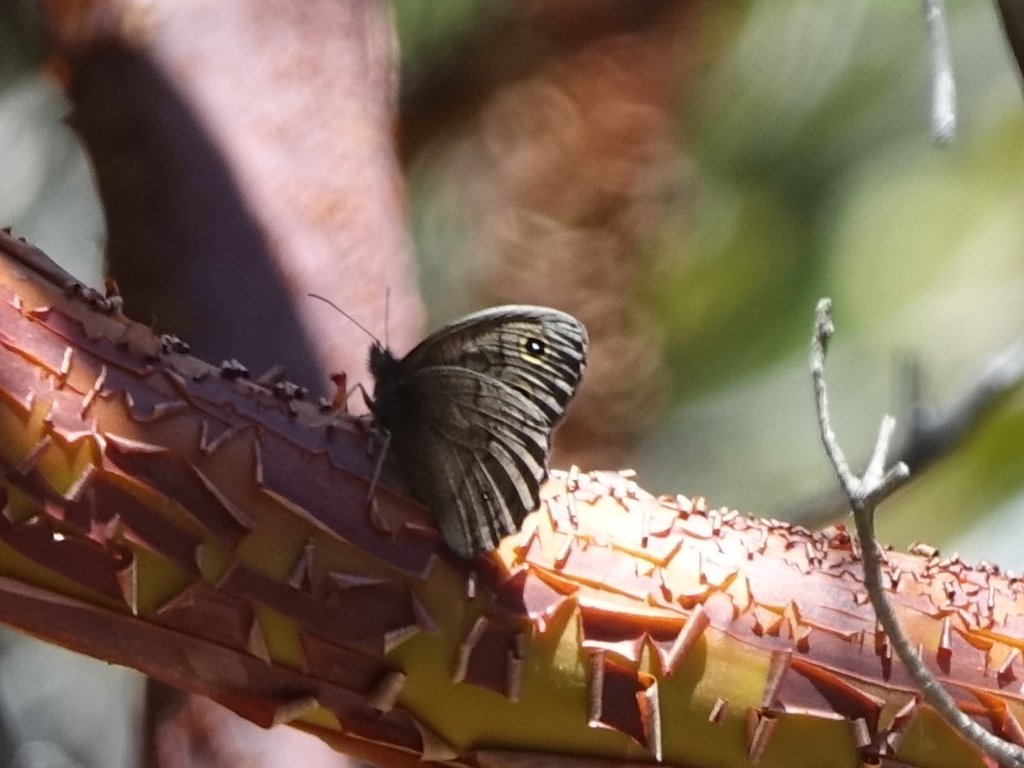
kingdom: Animalia
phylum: Arthropoda
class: Insecta
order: Lepidoptera
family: Nymphalidae
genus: Cercyonis
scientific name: Cercyonis pegala
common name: Common Wood-Nymph
